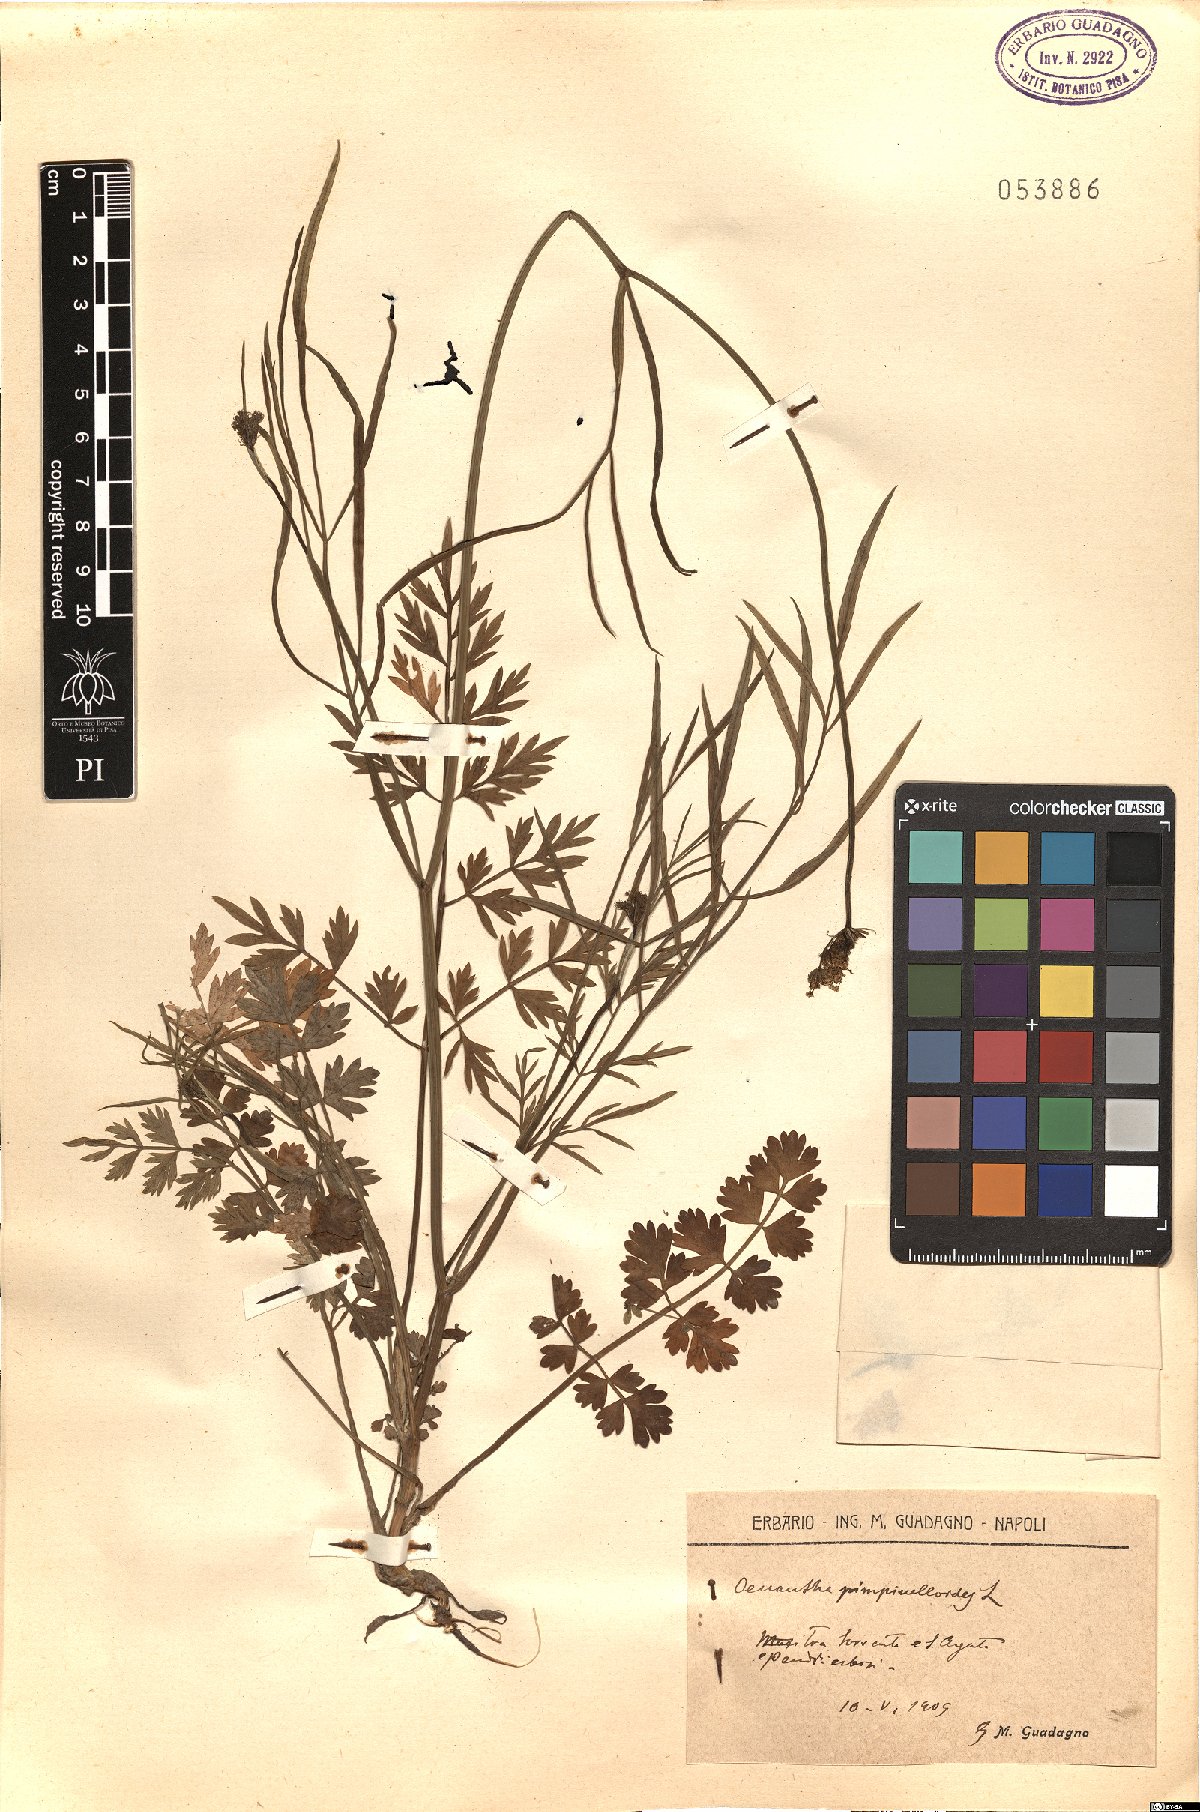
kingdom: Plantae
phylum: Tracheophyta
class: Magnoliopsida
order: Apiales
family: Apiaceae
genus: Oenanthe
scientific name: Oenanthe pimpinelloides
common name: Corky-fruited water-dropwort
